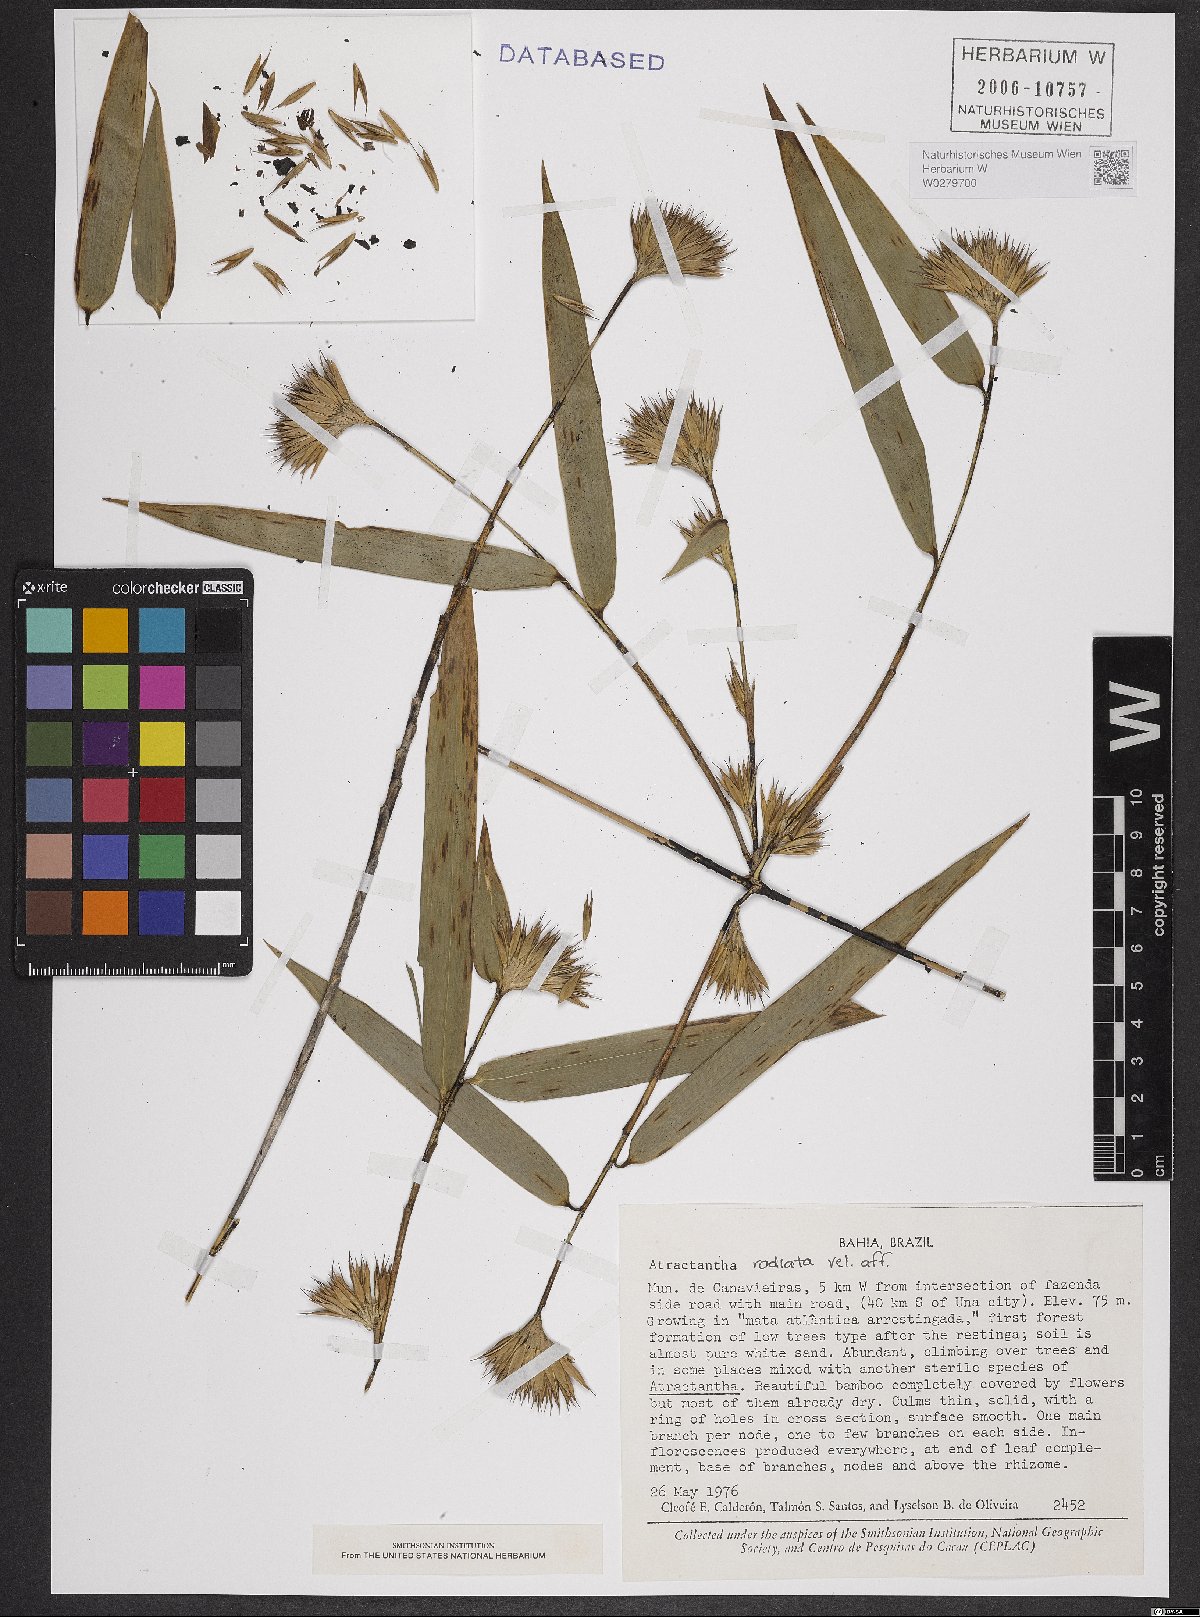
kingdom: Plantae
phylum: Tracheophyta
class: Liliopsida
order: Poales
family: Poaceae
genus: Atractantha
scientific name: Atractantha radiata
